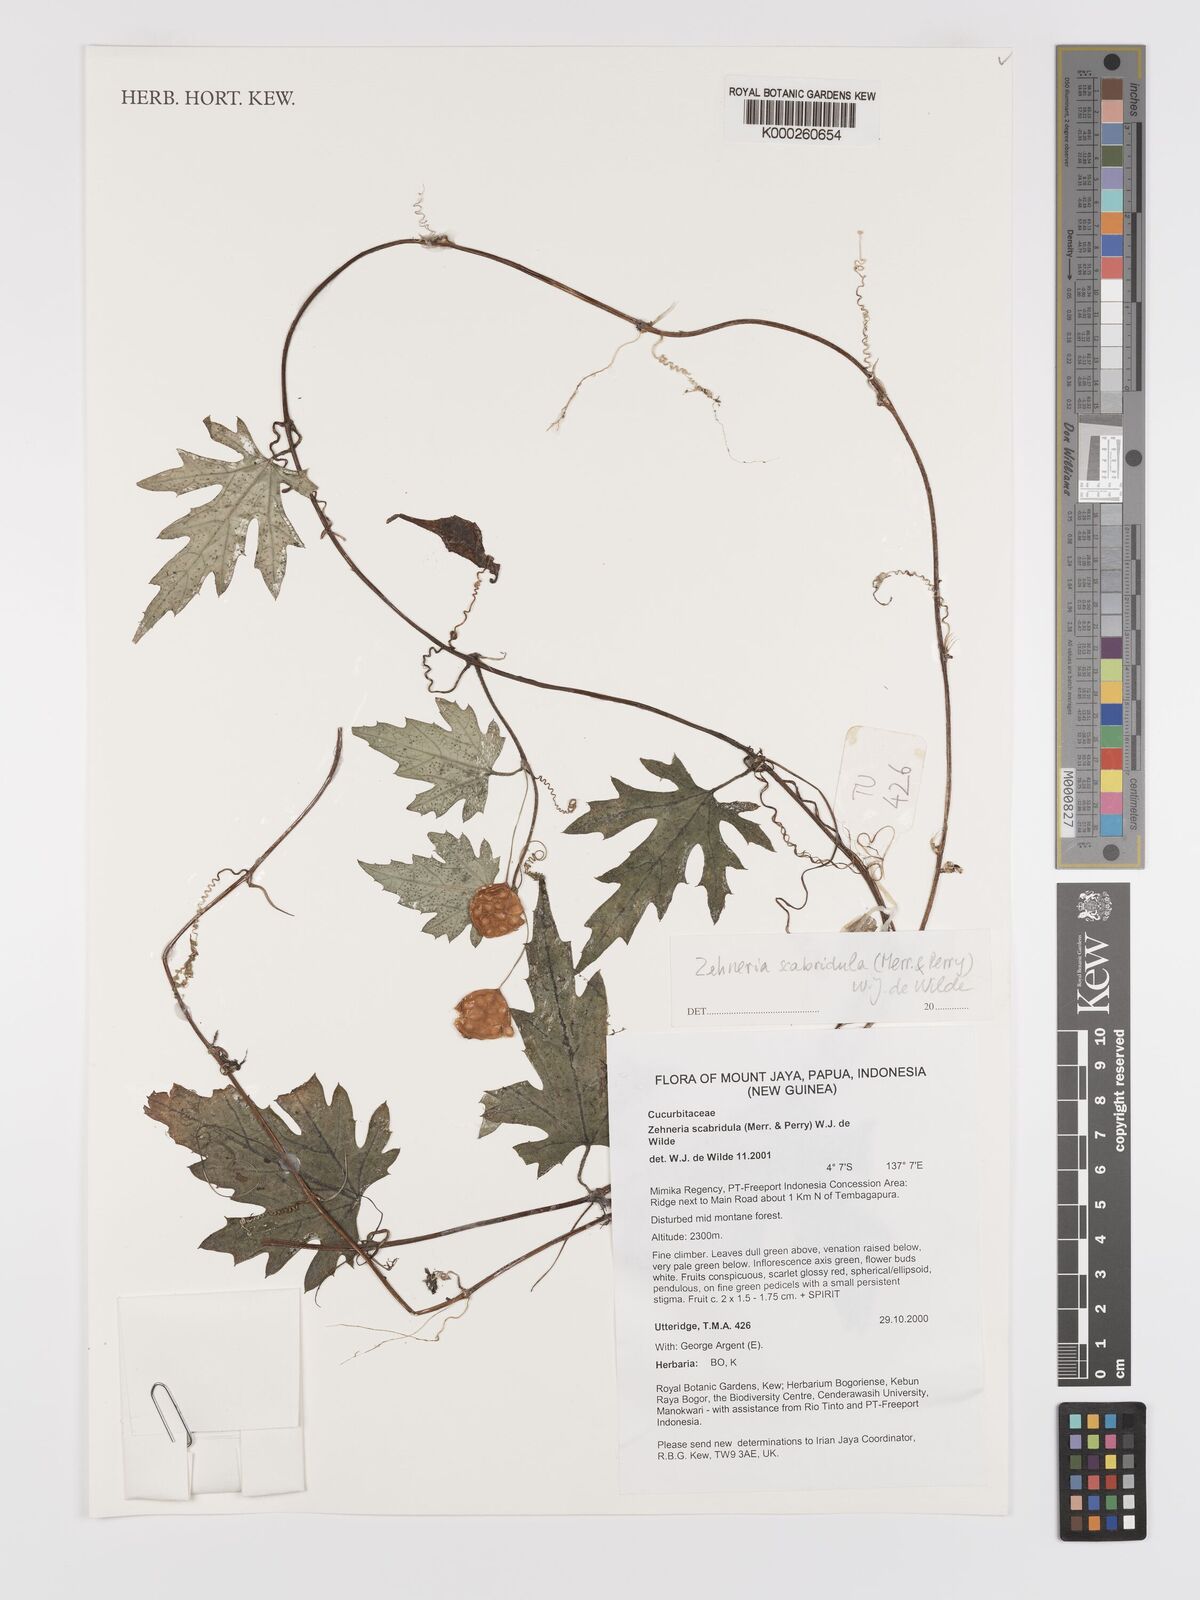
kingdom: Plantae
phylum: Tracheophyta
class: Magnoliopsida
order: Cucurbitales
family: Cucurbitaceae
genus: Zehneria
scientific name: Zehneria
